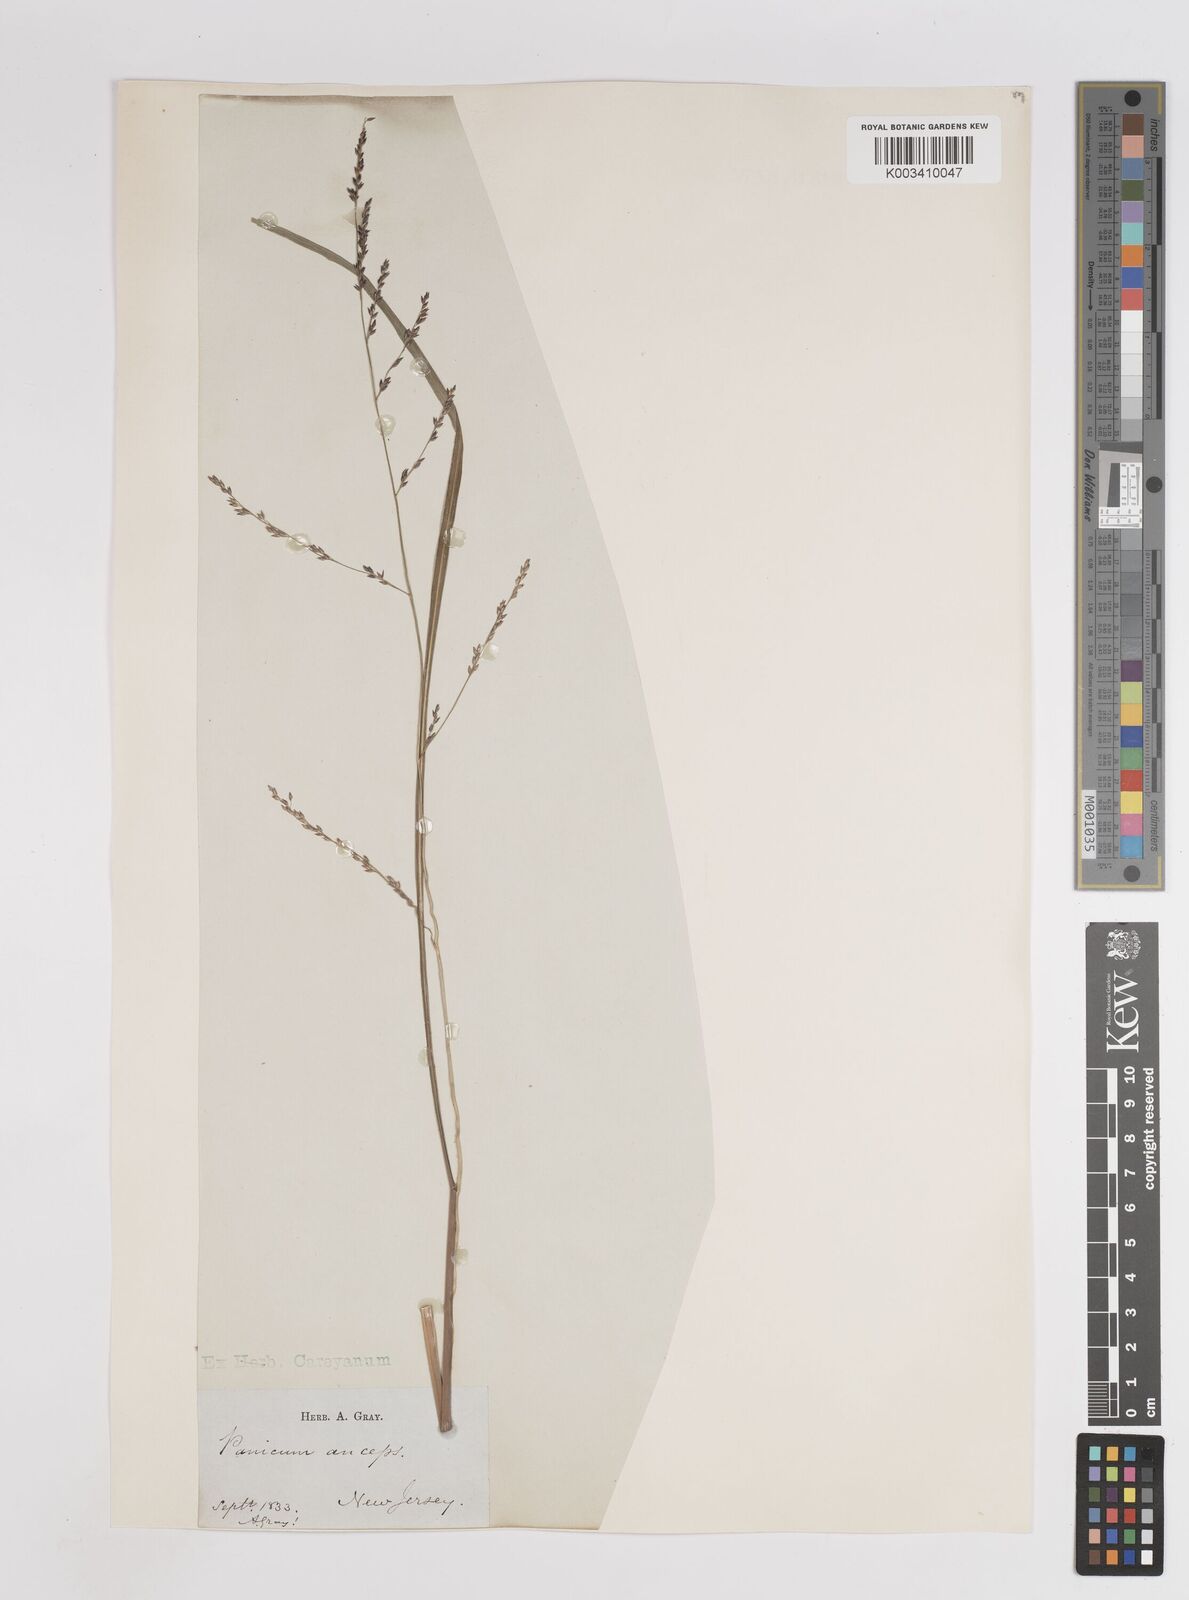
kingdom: Plantae
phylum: Tracheophyta
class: Liliopsida
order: Poales
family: Poaceae
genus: Coleataenia
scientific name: Coleataenia anceps
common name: Beaked panic grass
